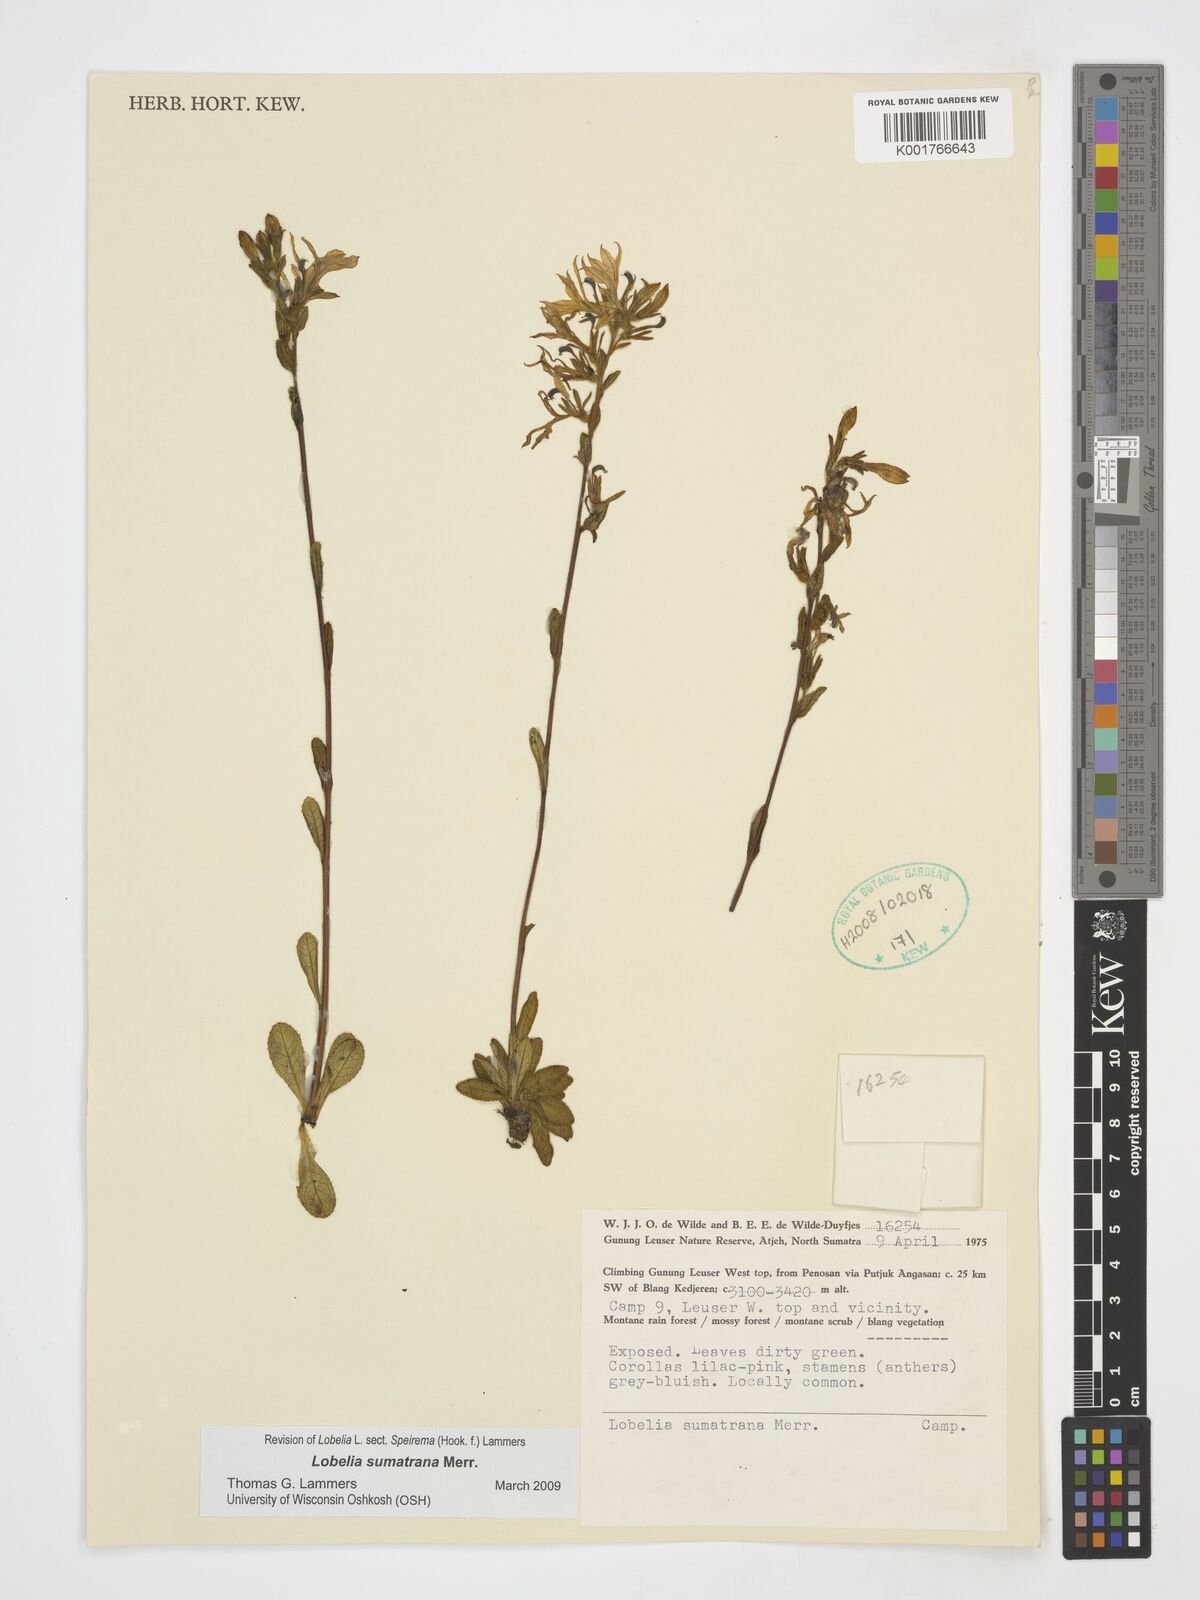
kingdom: Plantae
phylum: Tracheophyta
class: Magnoliopsida
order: Asterales
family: Campanulaceae
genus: Lobelia
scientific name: Lobelia sumatrana
